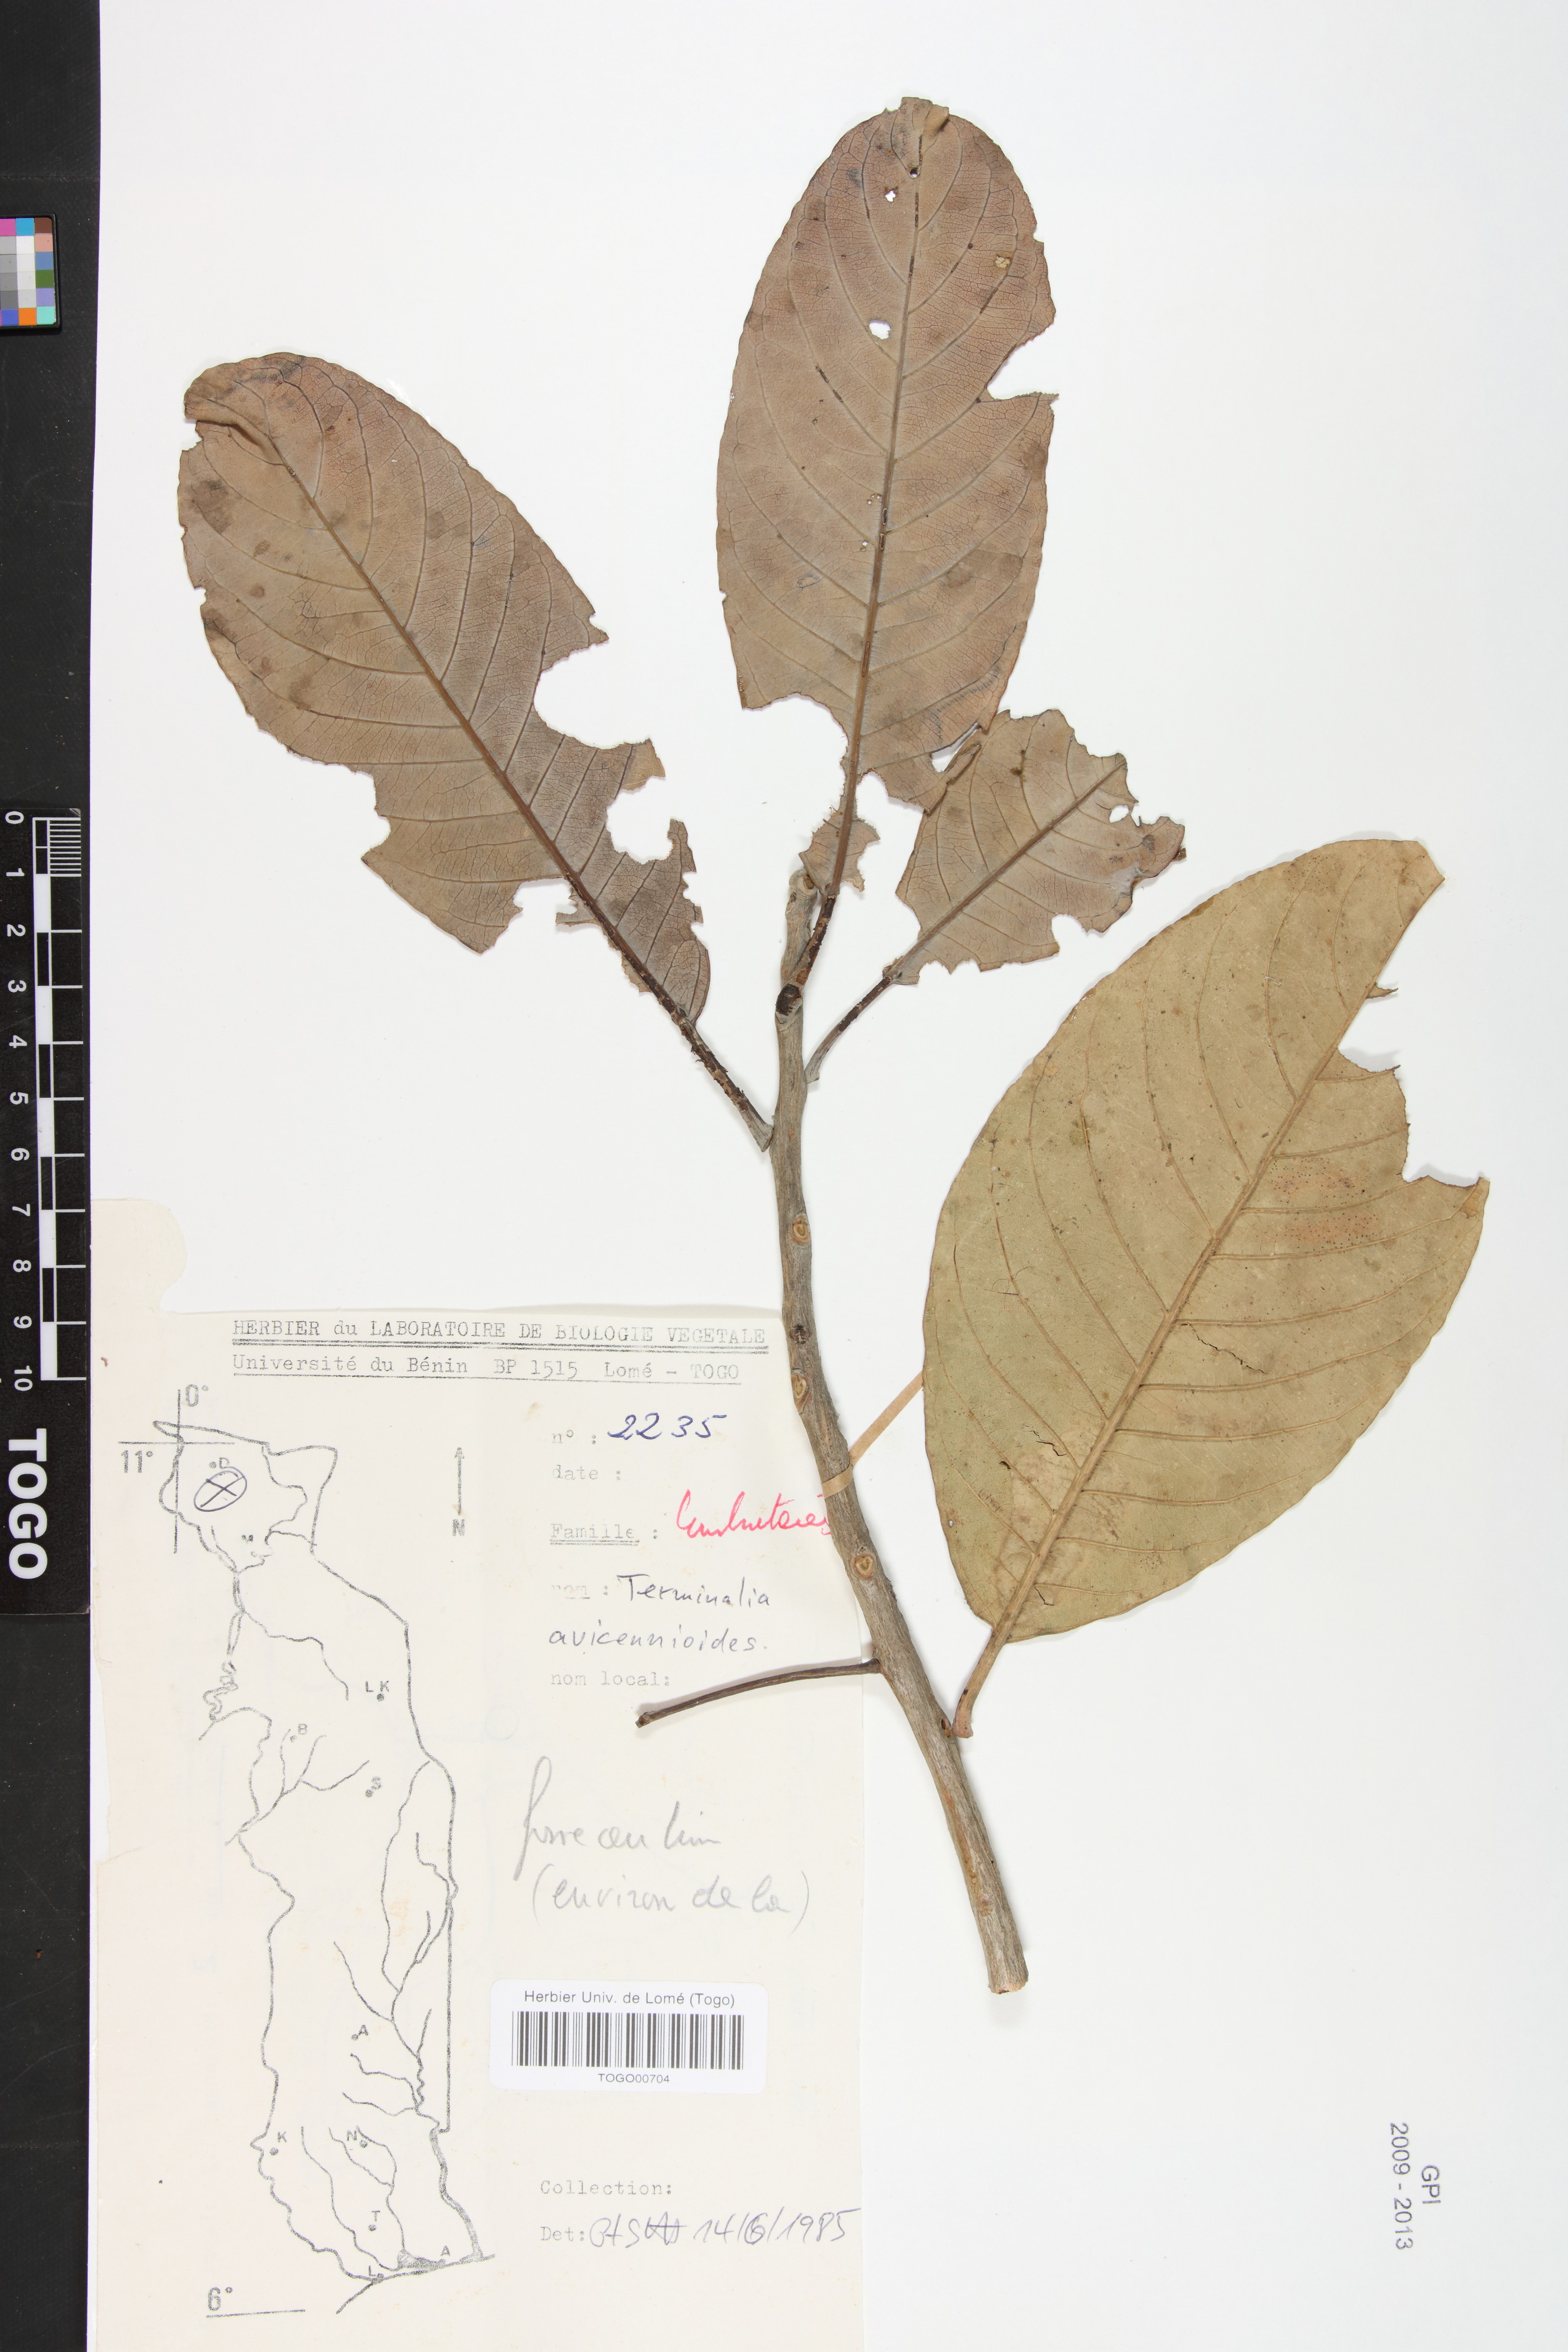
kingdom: Plantae
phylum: Tracheophyta
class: Magnoliopsida
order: Myrtales
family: Combretaceae
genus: Terminalia
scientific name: Terminalia avicennioides
